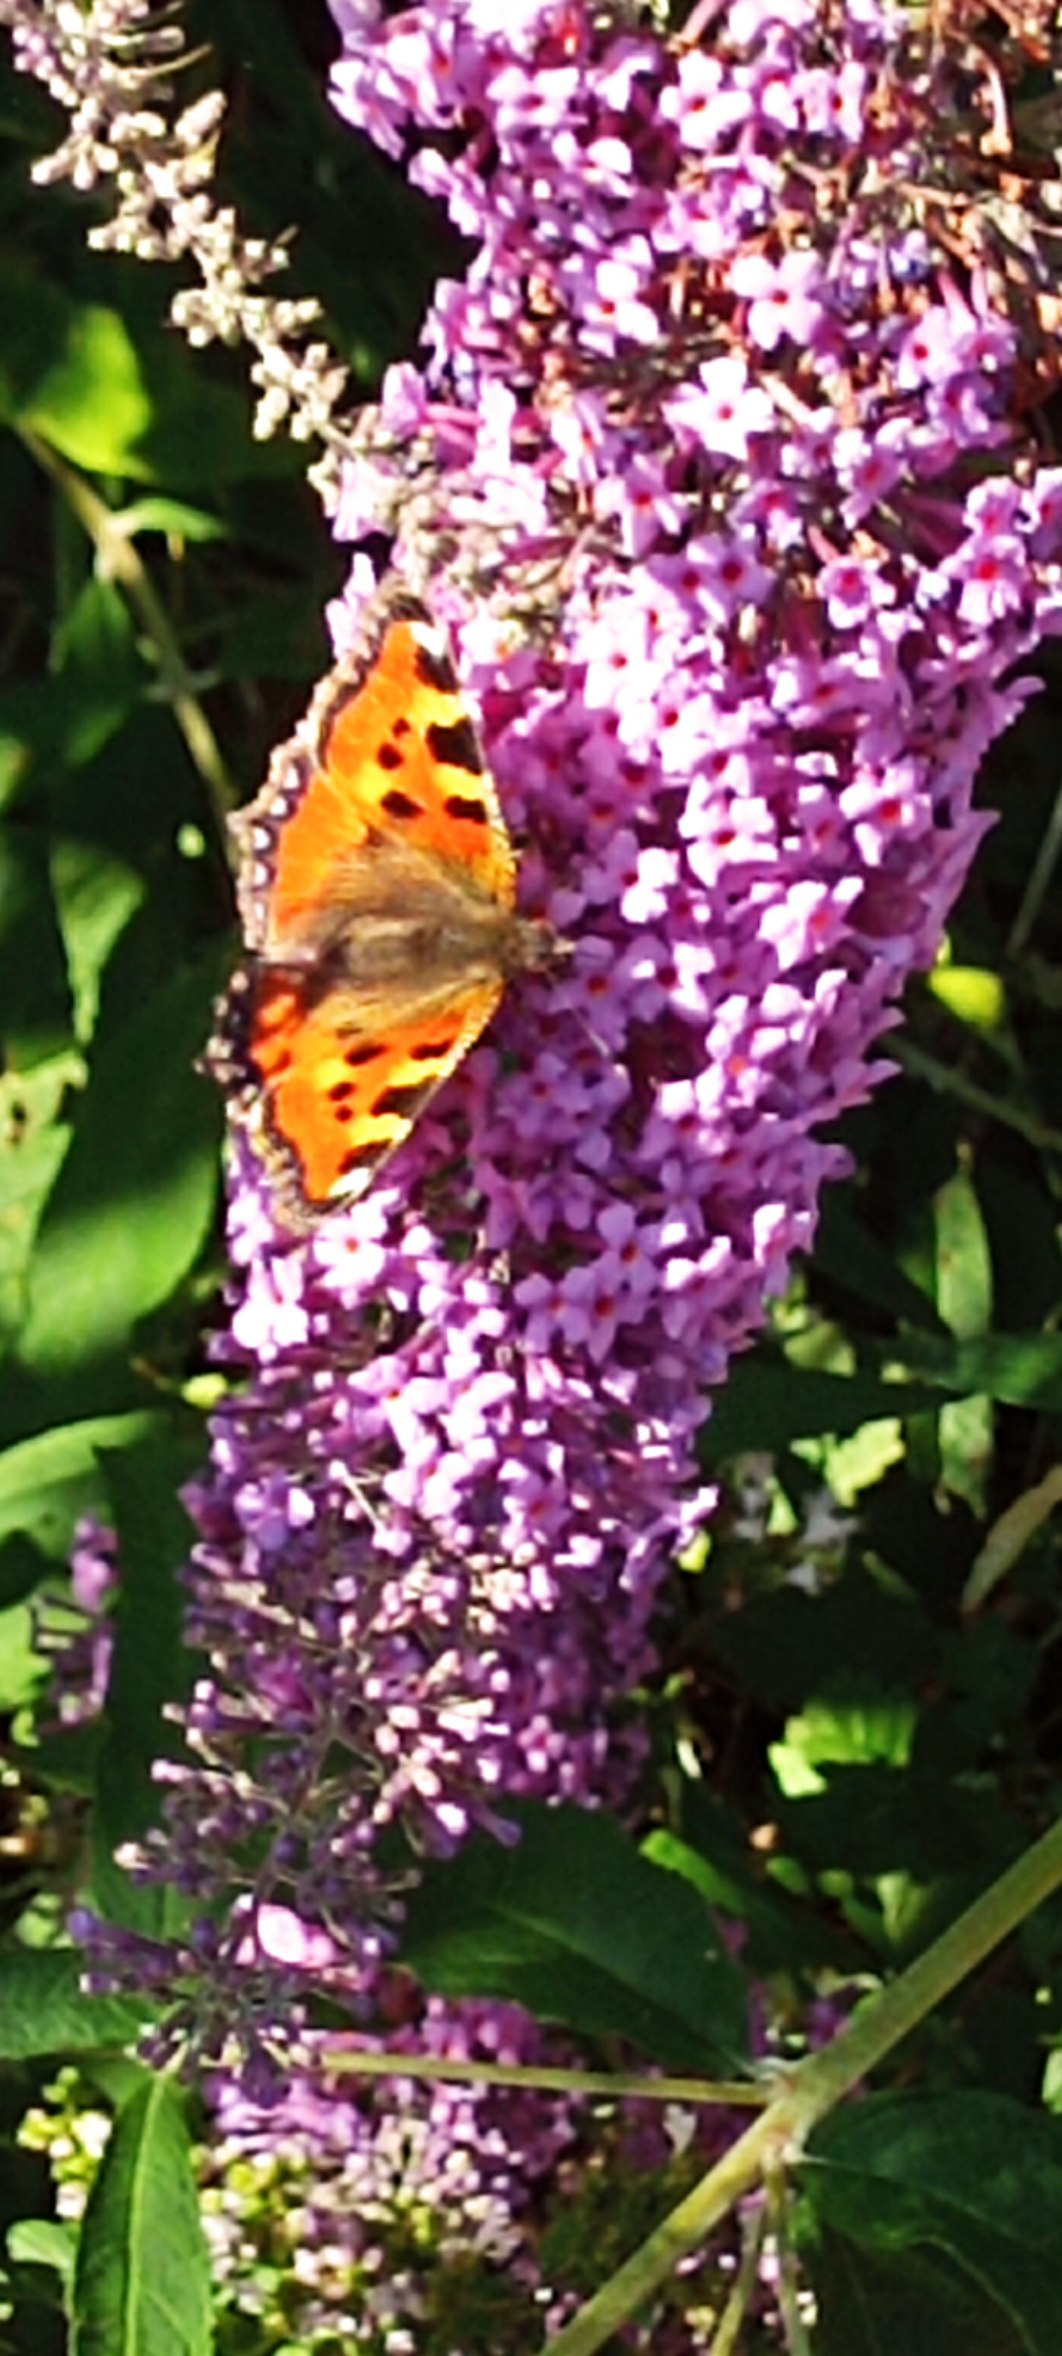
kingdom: Animalia
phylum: Arthropoda
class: Insecta
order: Lepidoptera
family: Nymphalidae
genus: Aglais
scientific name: Aglais urticae
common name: Nældens takvinge
